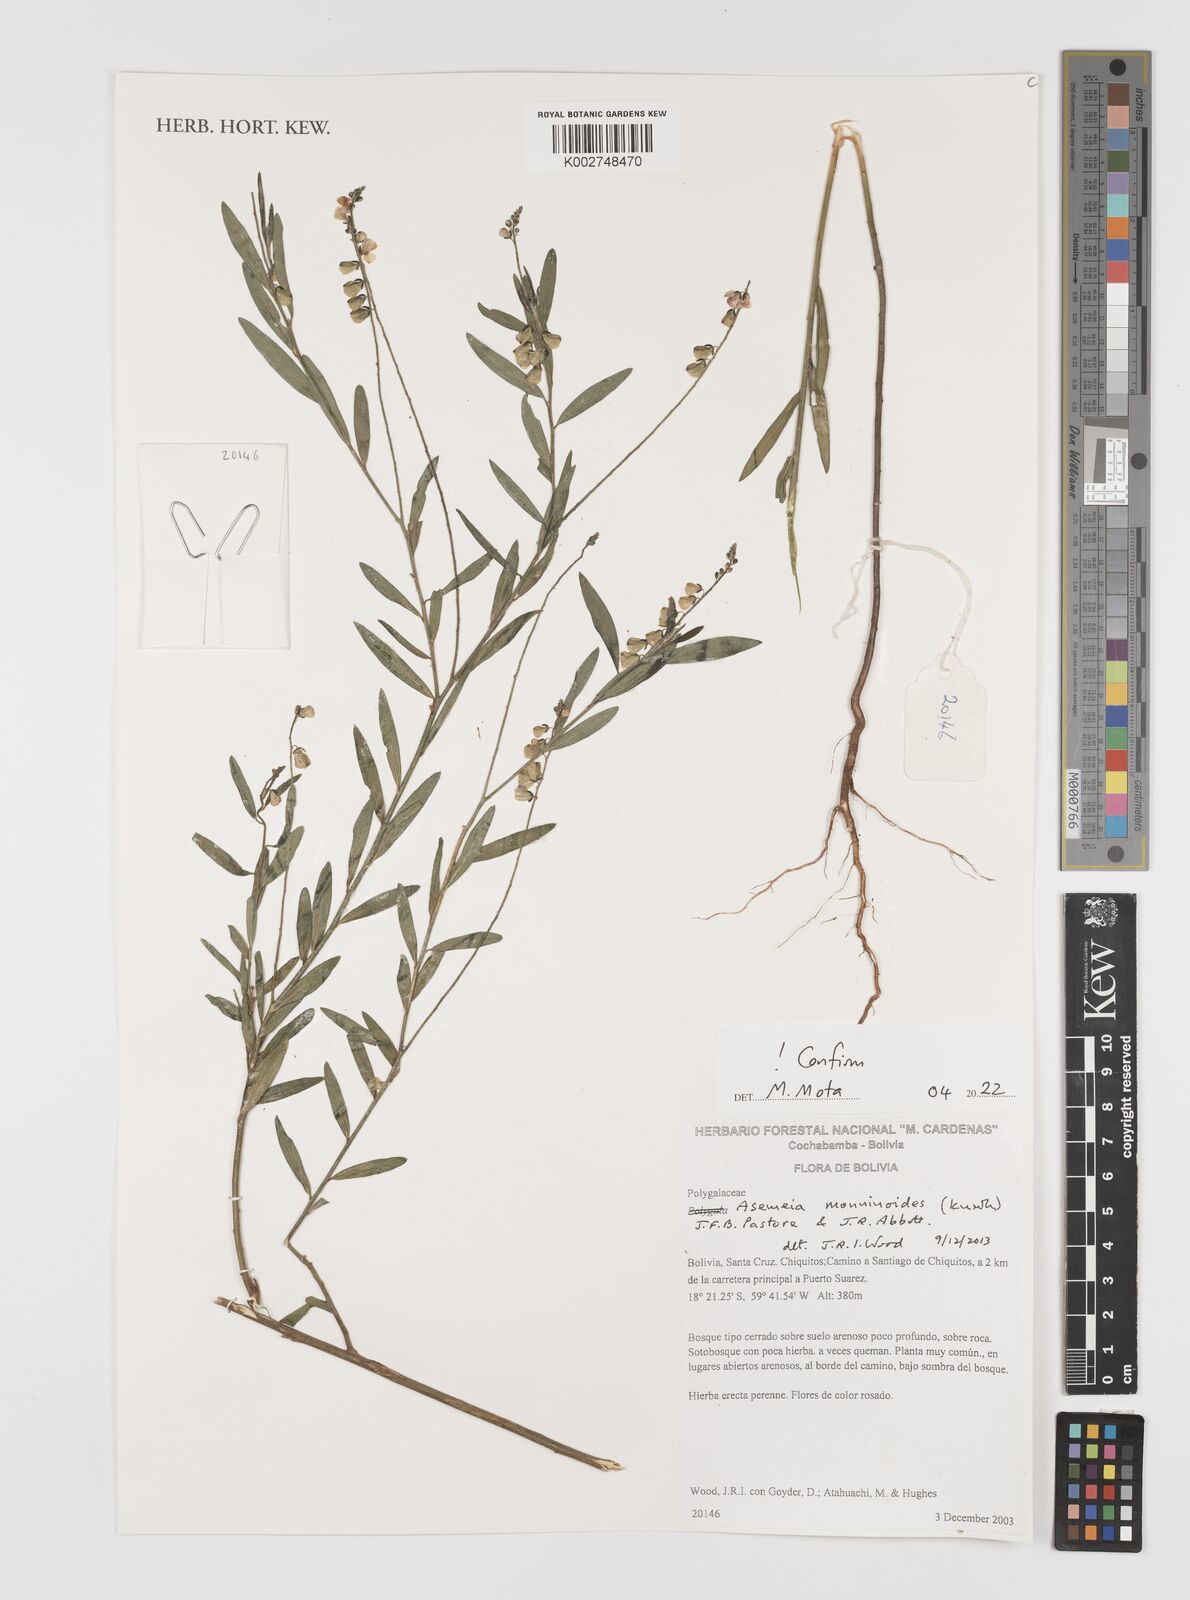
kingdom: Plantae
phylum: Tracheophyta
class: Magnoliopsida
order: Fabales
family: Polygalaceae
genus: Asemeia
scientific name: Asemeia monninoides
